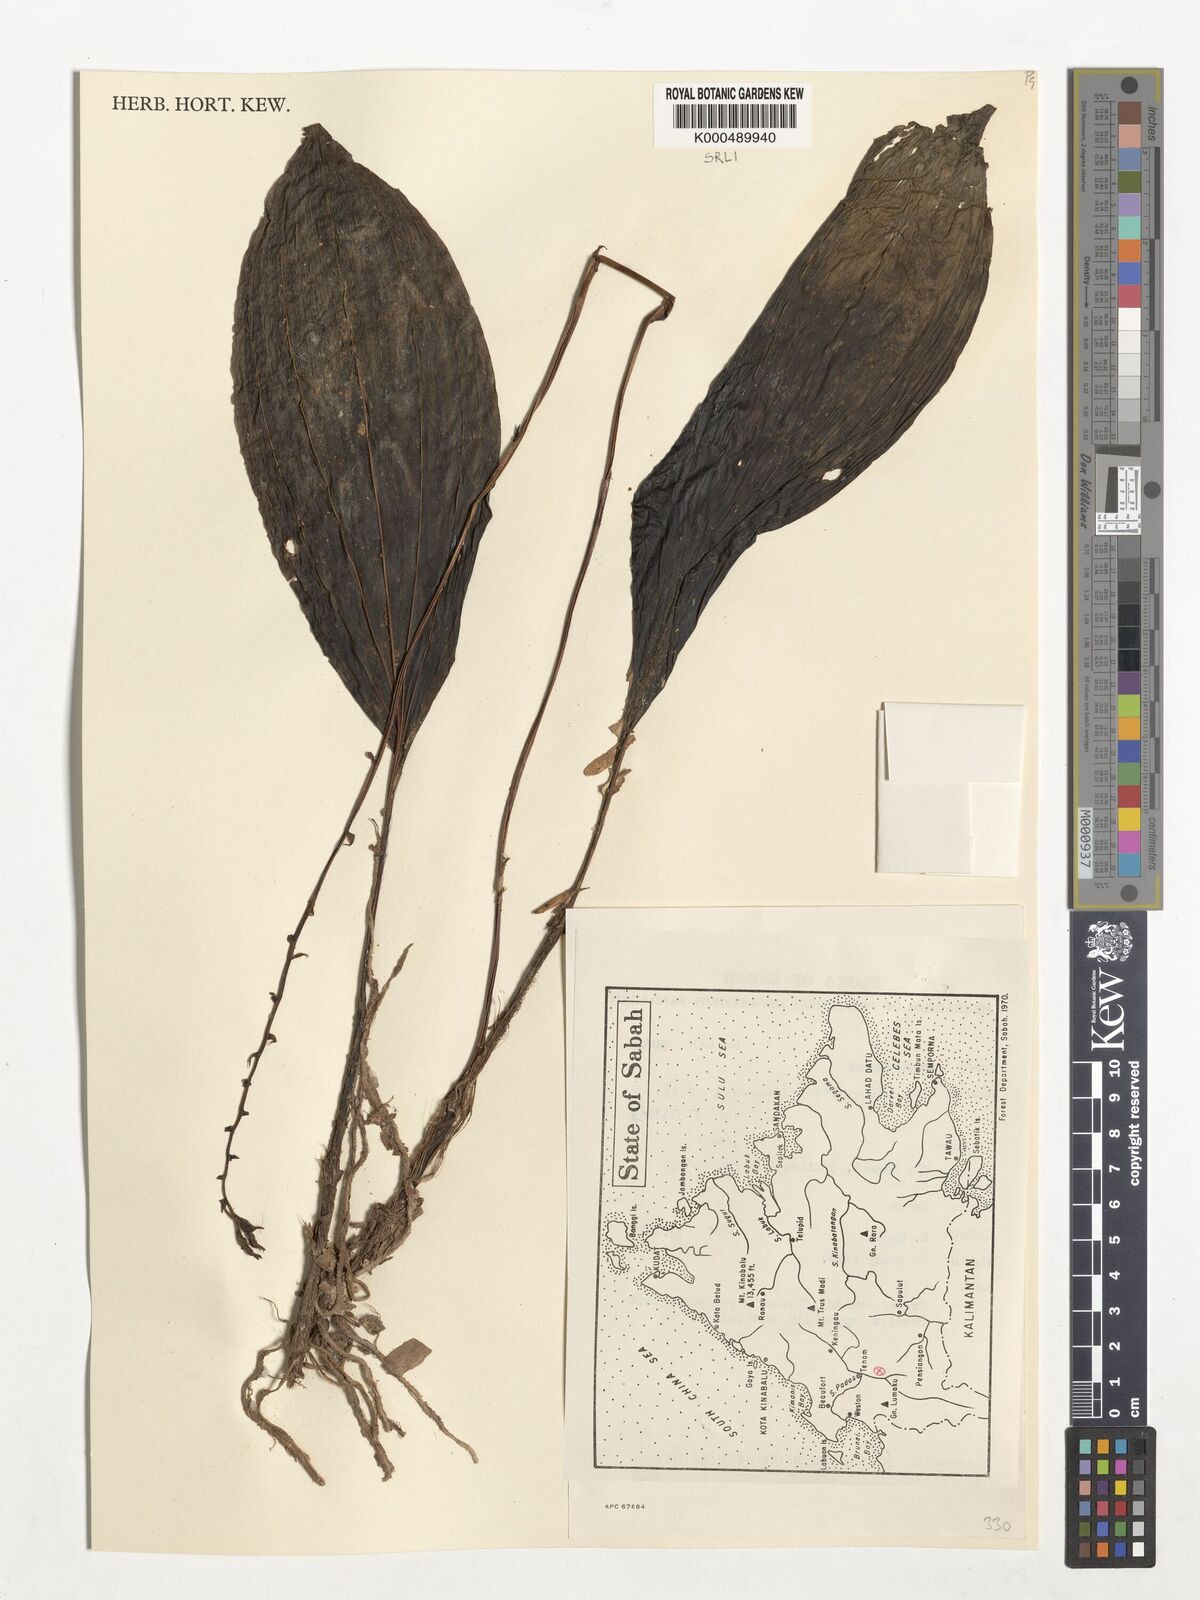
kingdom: Plantae
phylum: Tracheophyta
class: Liliopsida
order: Asparagales
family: Orchidaceae
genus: Plocoglottis
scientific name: Plocoglottis borneensis
